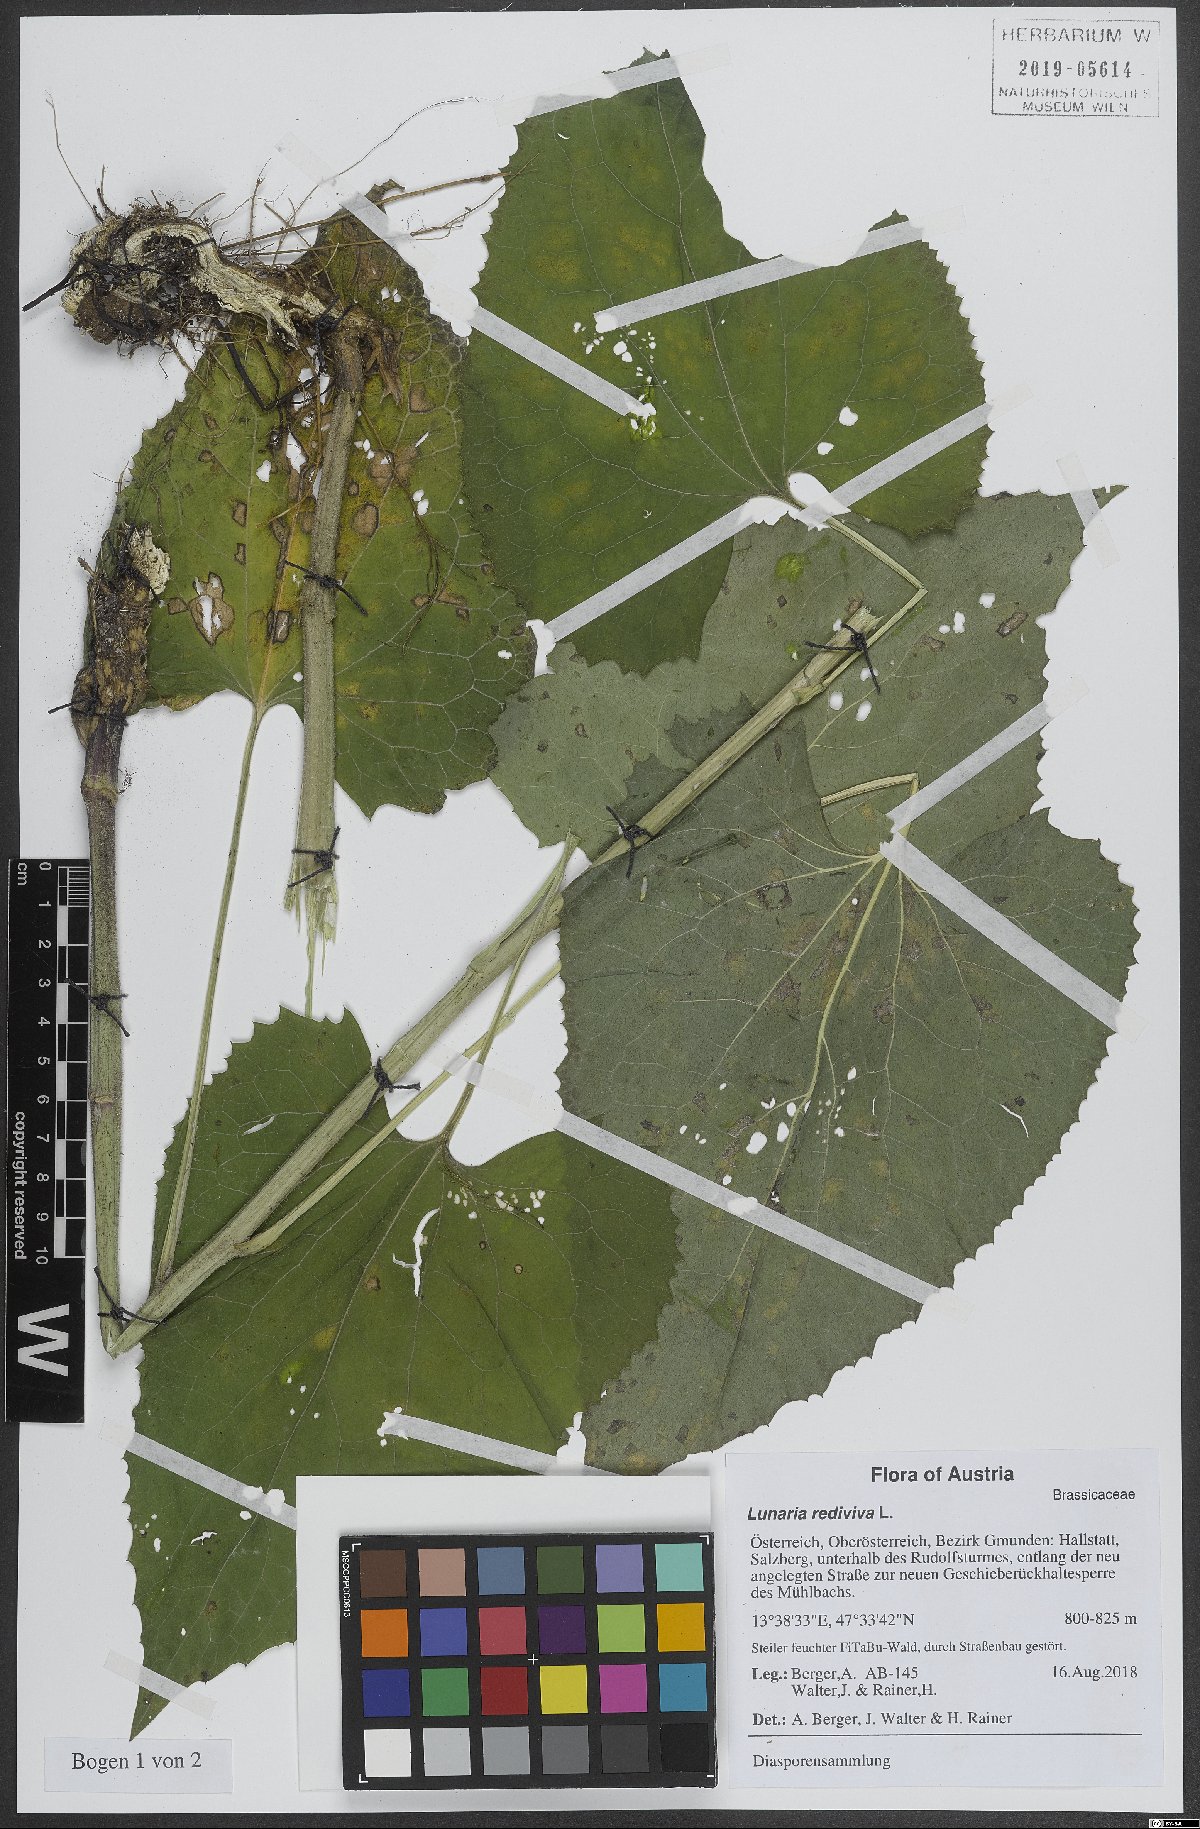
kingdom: Plantae
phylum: Tracheophyta
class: Magnoliopsida
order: Brassicales
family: Brassicaceae
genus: Lunaria
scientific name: Lunaria rediviva
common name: Perennial honesty
